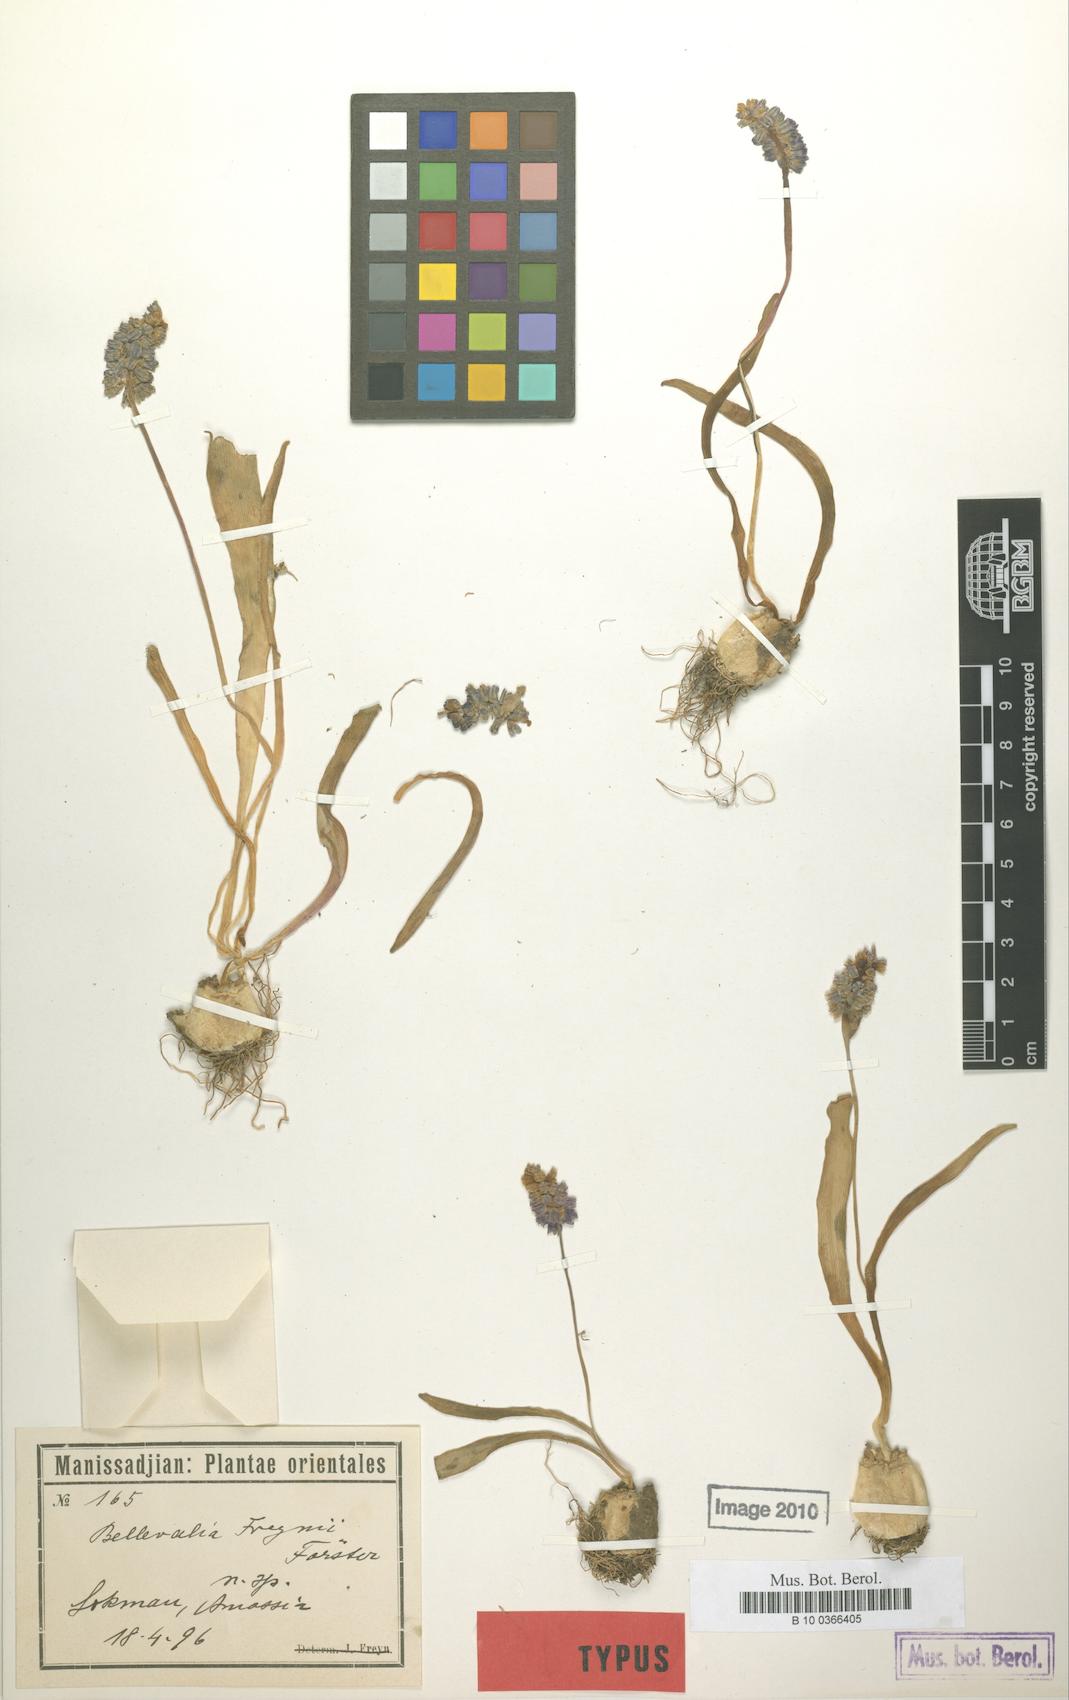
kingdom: Plantae
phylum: Tracheophyta
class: Liliopsida
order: Asparagales
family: Asparagaceae
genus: Hyacinthus
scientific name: Hyacinthus
